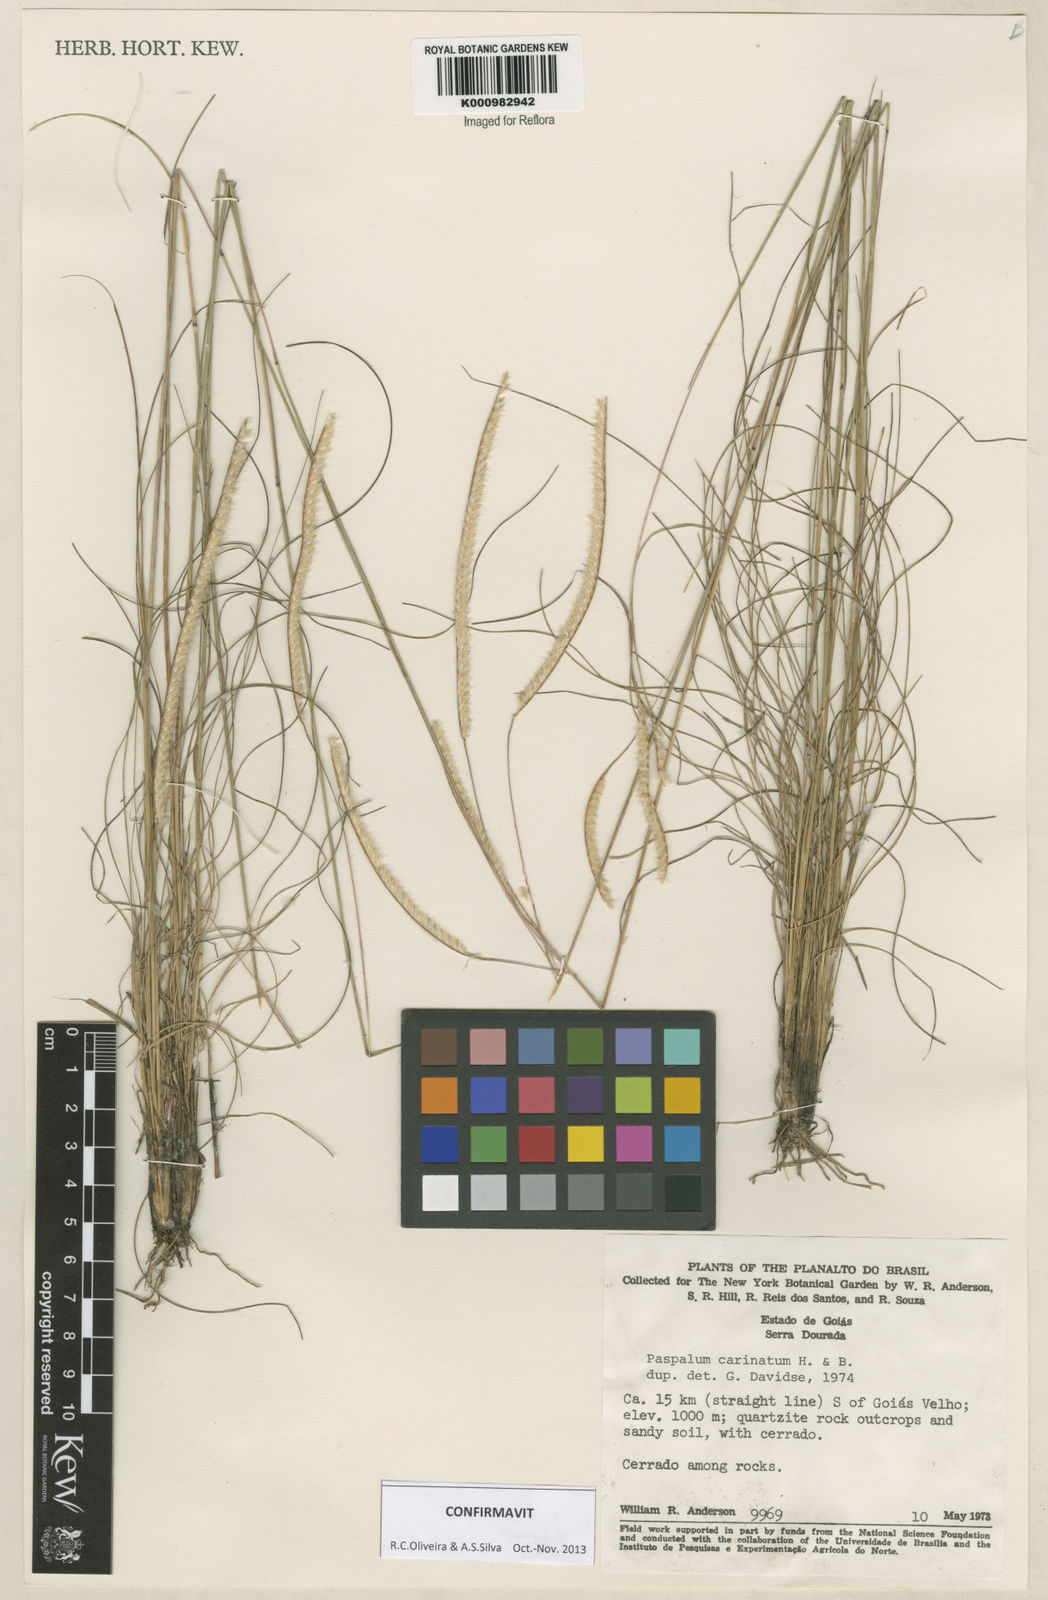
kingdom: Plantae
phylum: Tracheophyta
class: Liliopsida
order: Poales
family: Poaceae
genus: Paspalum
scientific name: Paspalum
